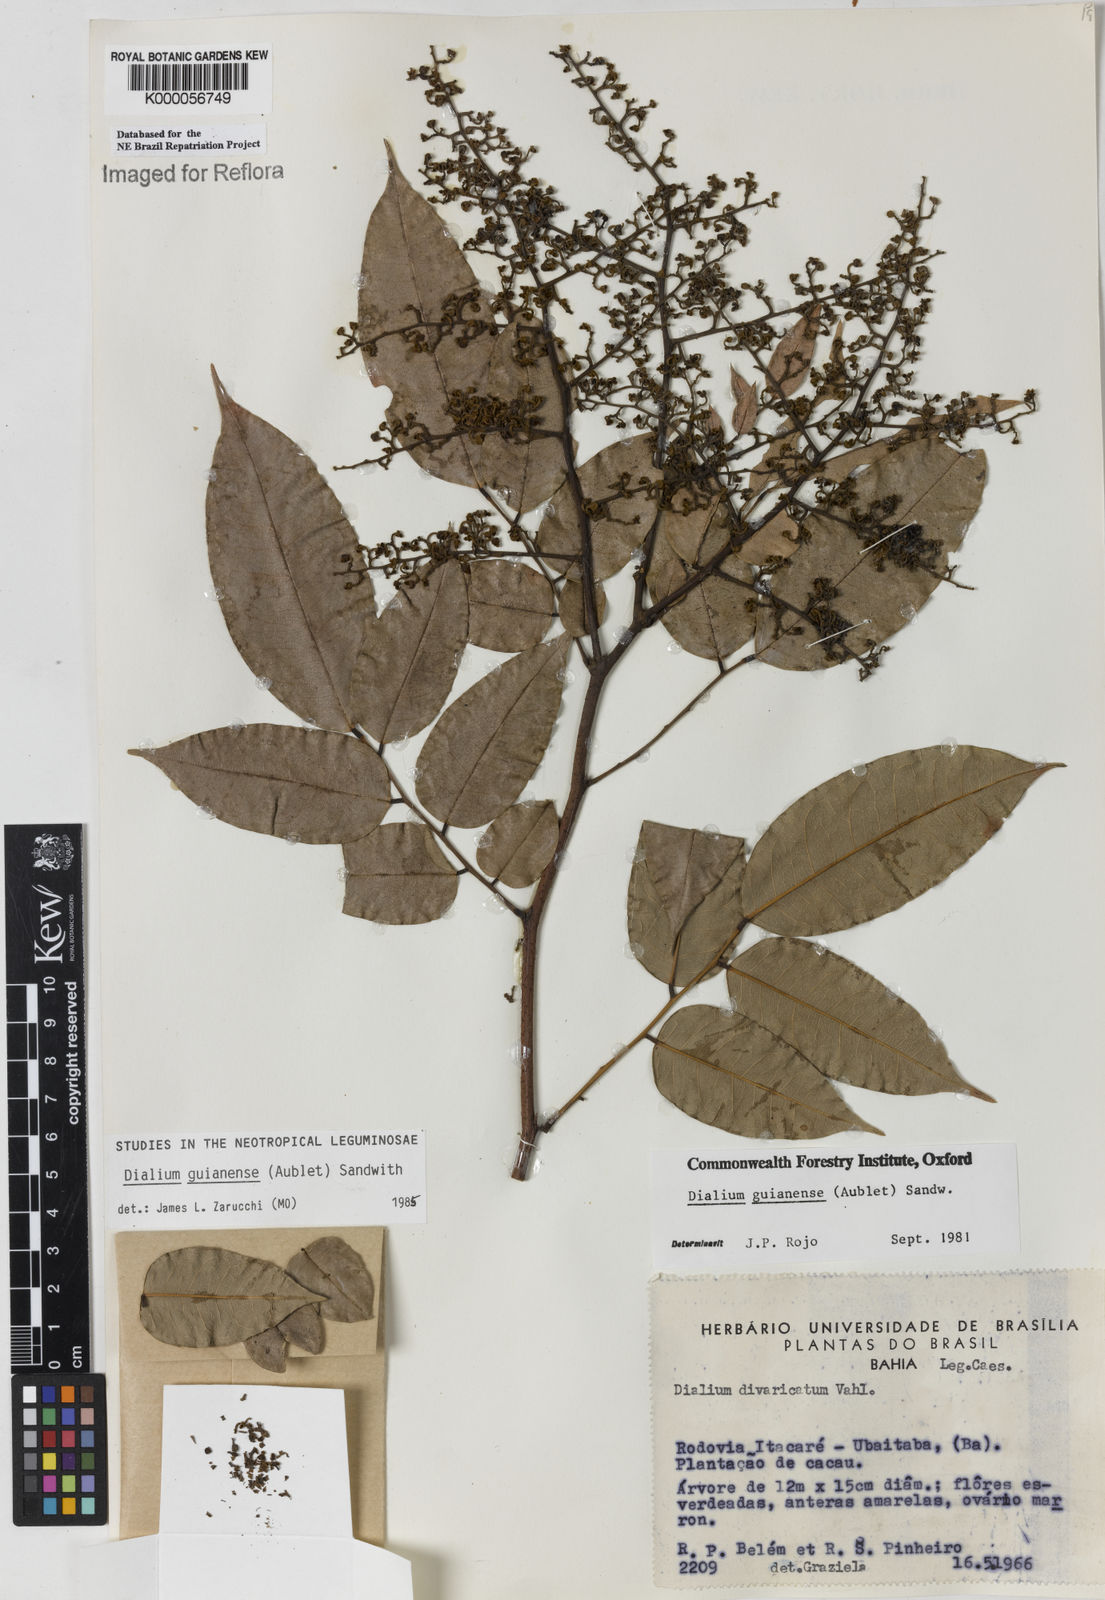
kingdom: Plantae
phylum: Tracheophyta
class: Magnoliopsida
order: Fabales
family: Fabaceae
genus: Dialium
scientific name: Dialium guianense
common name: Ironwood
